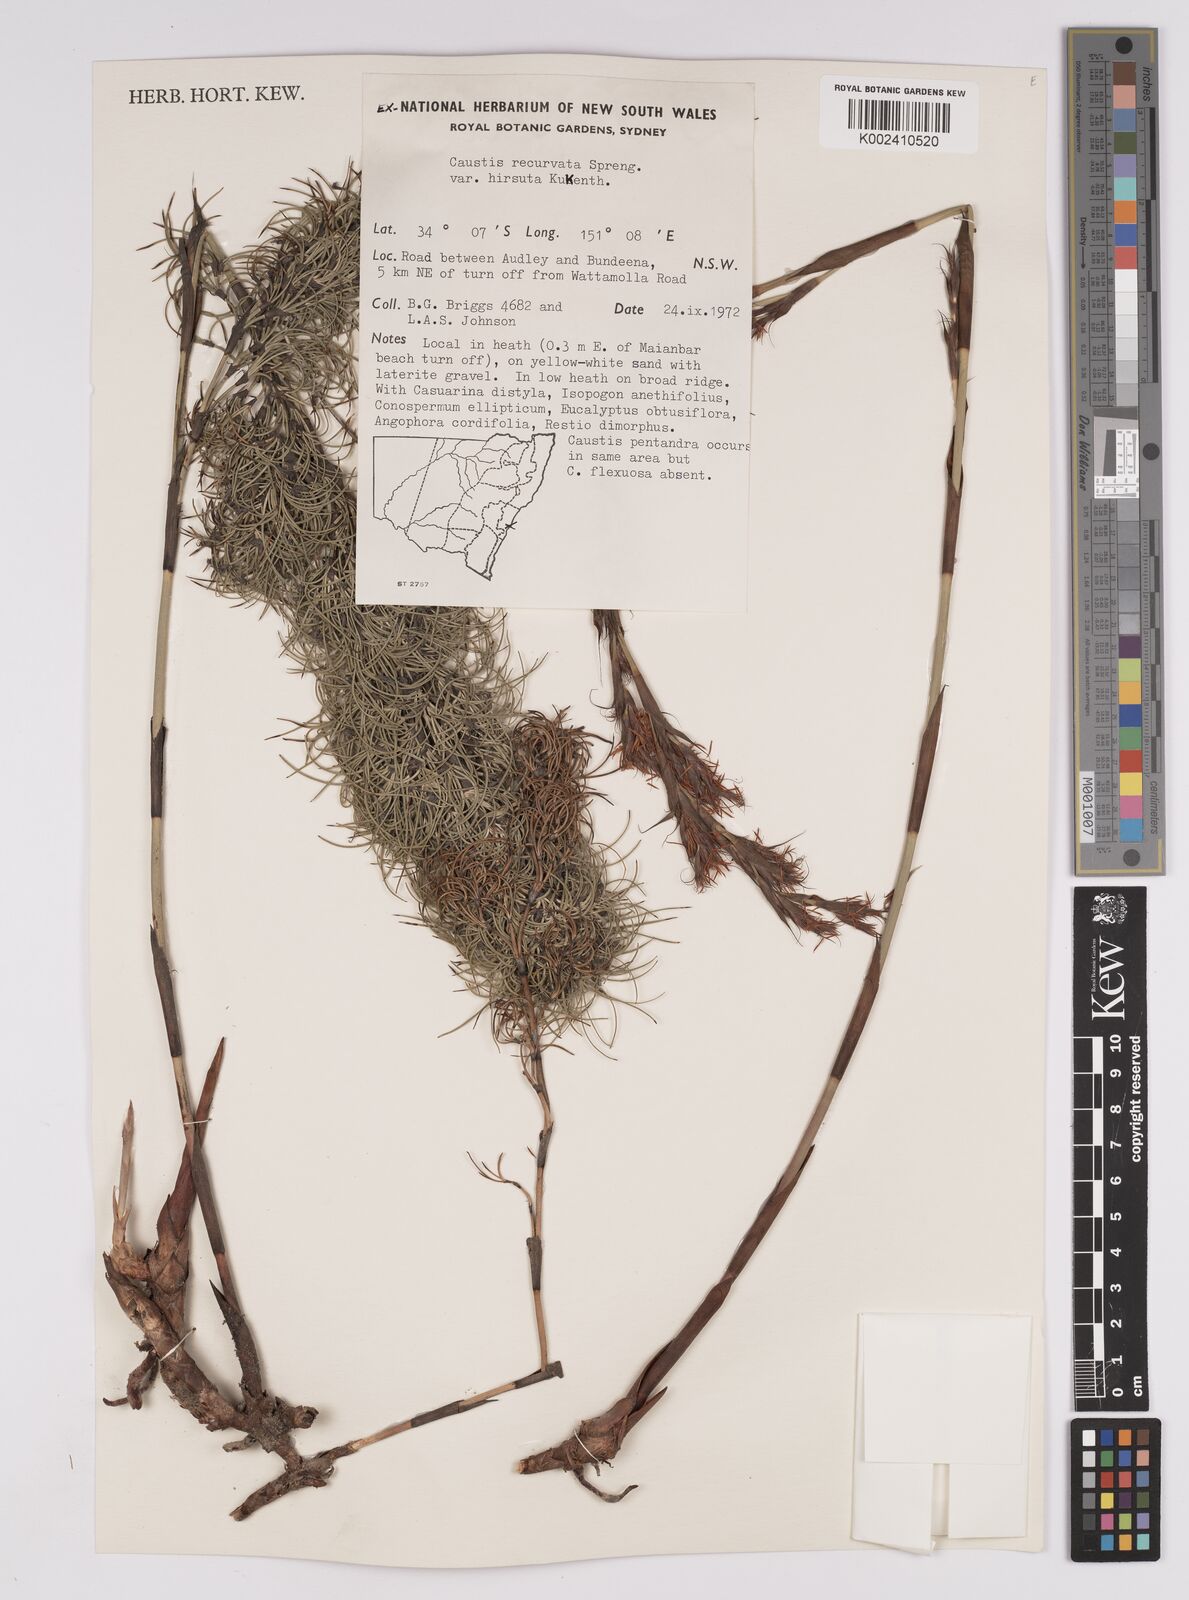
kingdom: Plantae
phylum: Tracheophyta
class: Liliopsida
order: Poales
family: Cyperaceae
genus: Caustis
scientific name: Caustis recurvata
